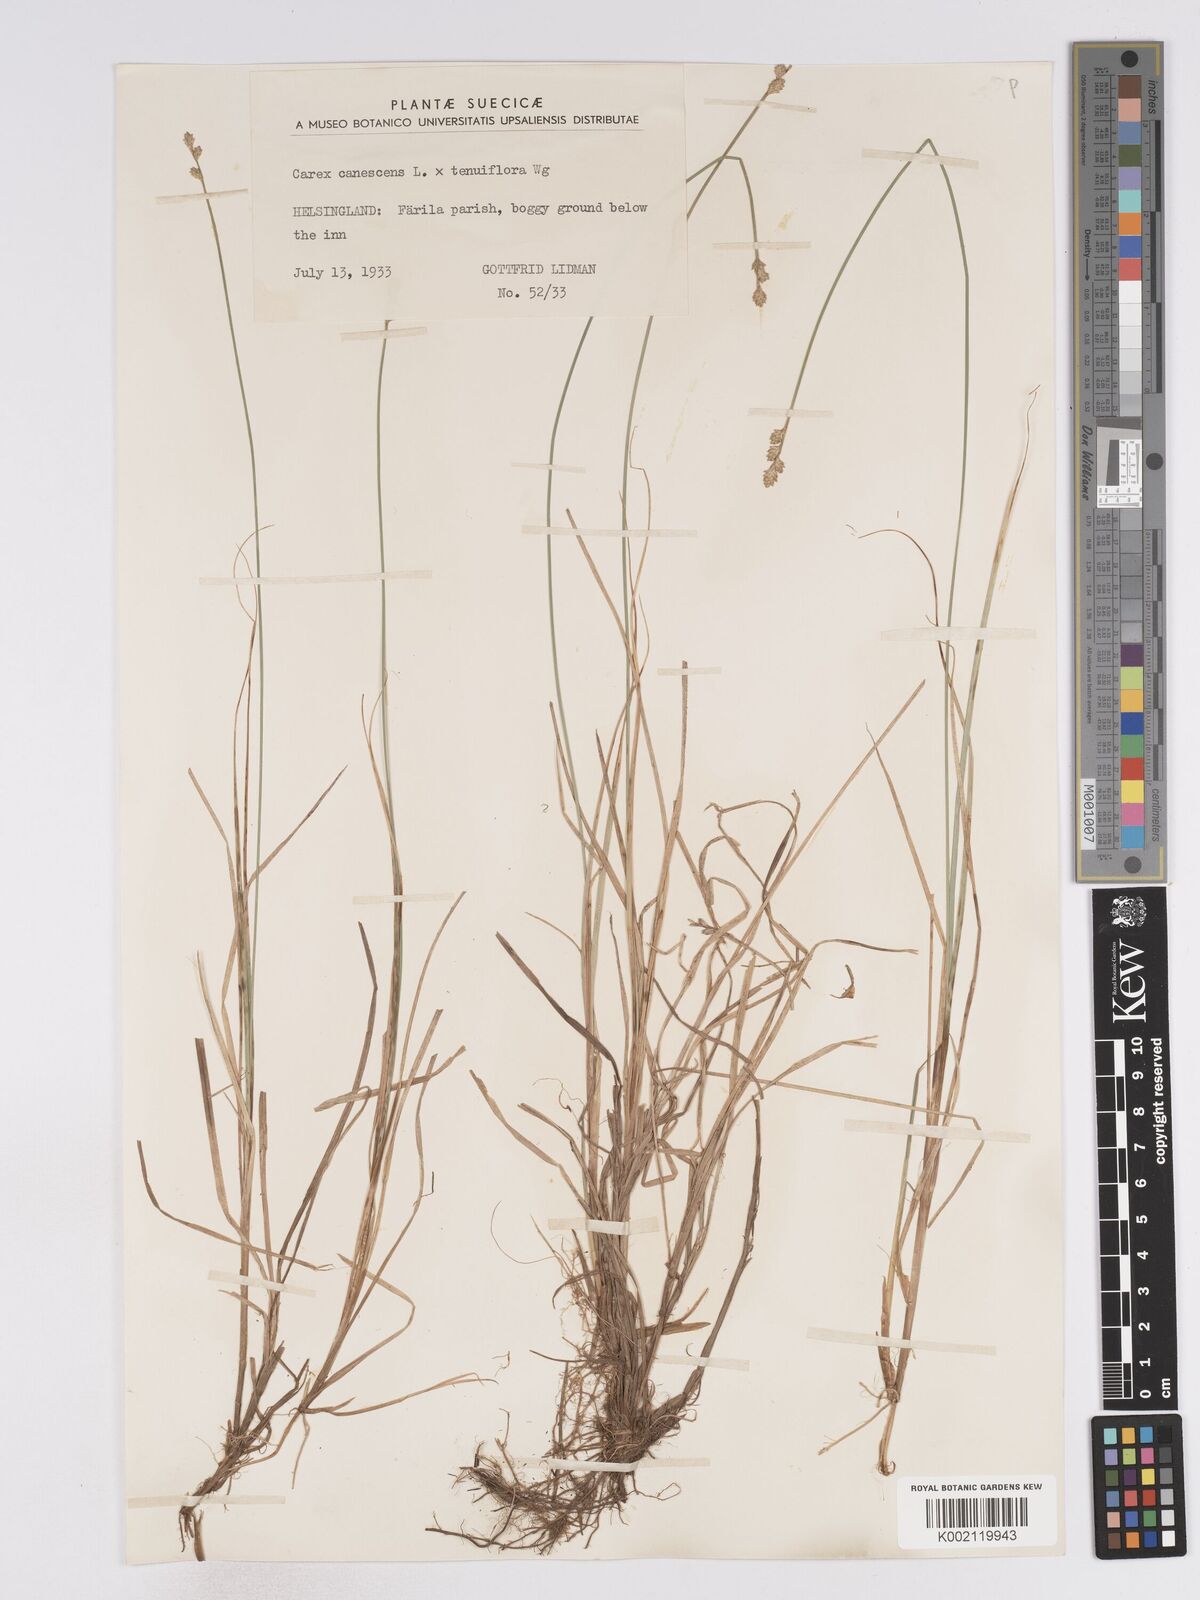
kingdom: Plantae
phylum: Tracheophyta
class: Liliopsida
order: Poales
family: Cyperaceae
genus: Carex
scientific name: Carex curta
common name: White sedge
